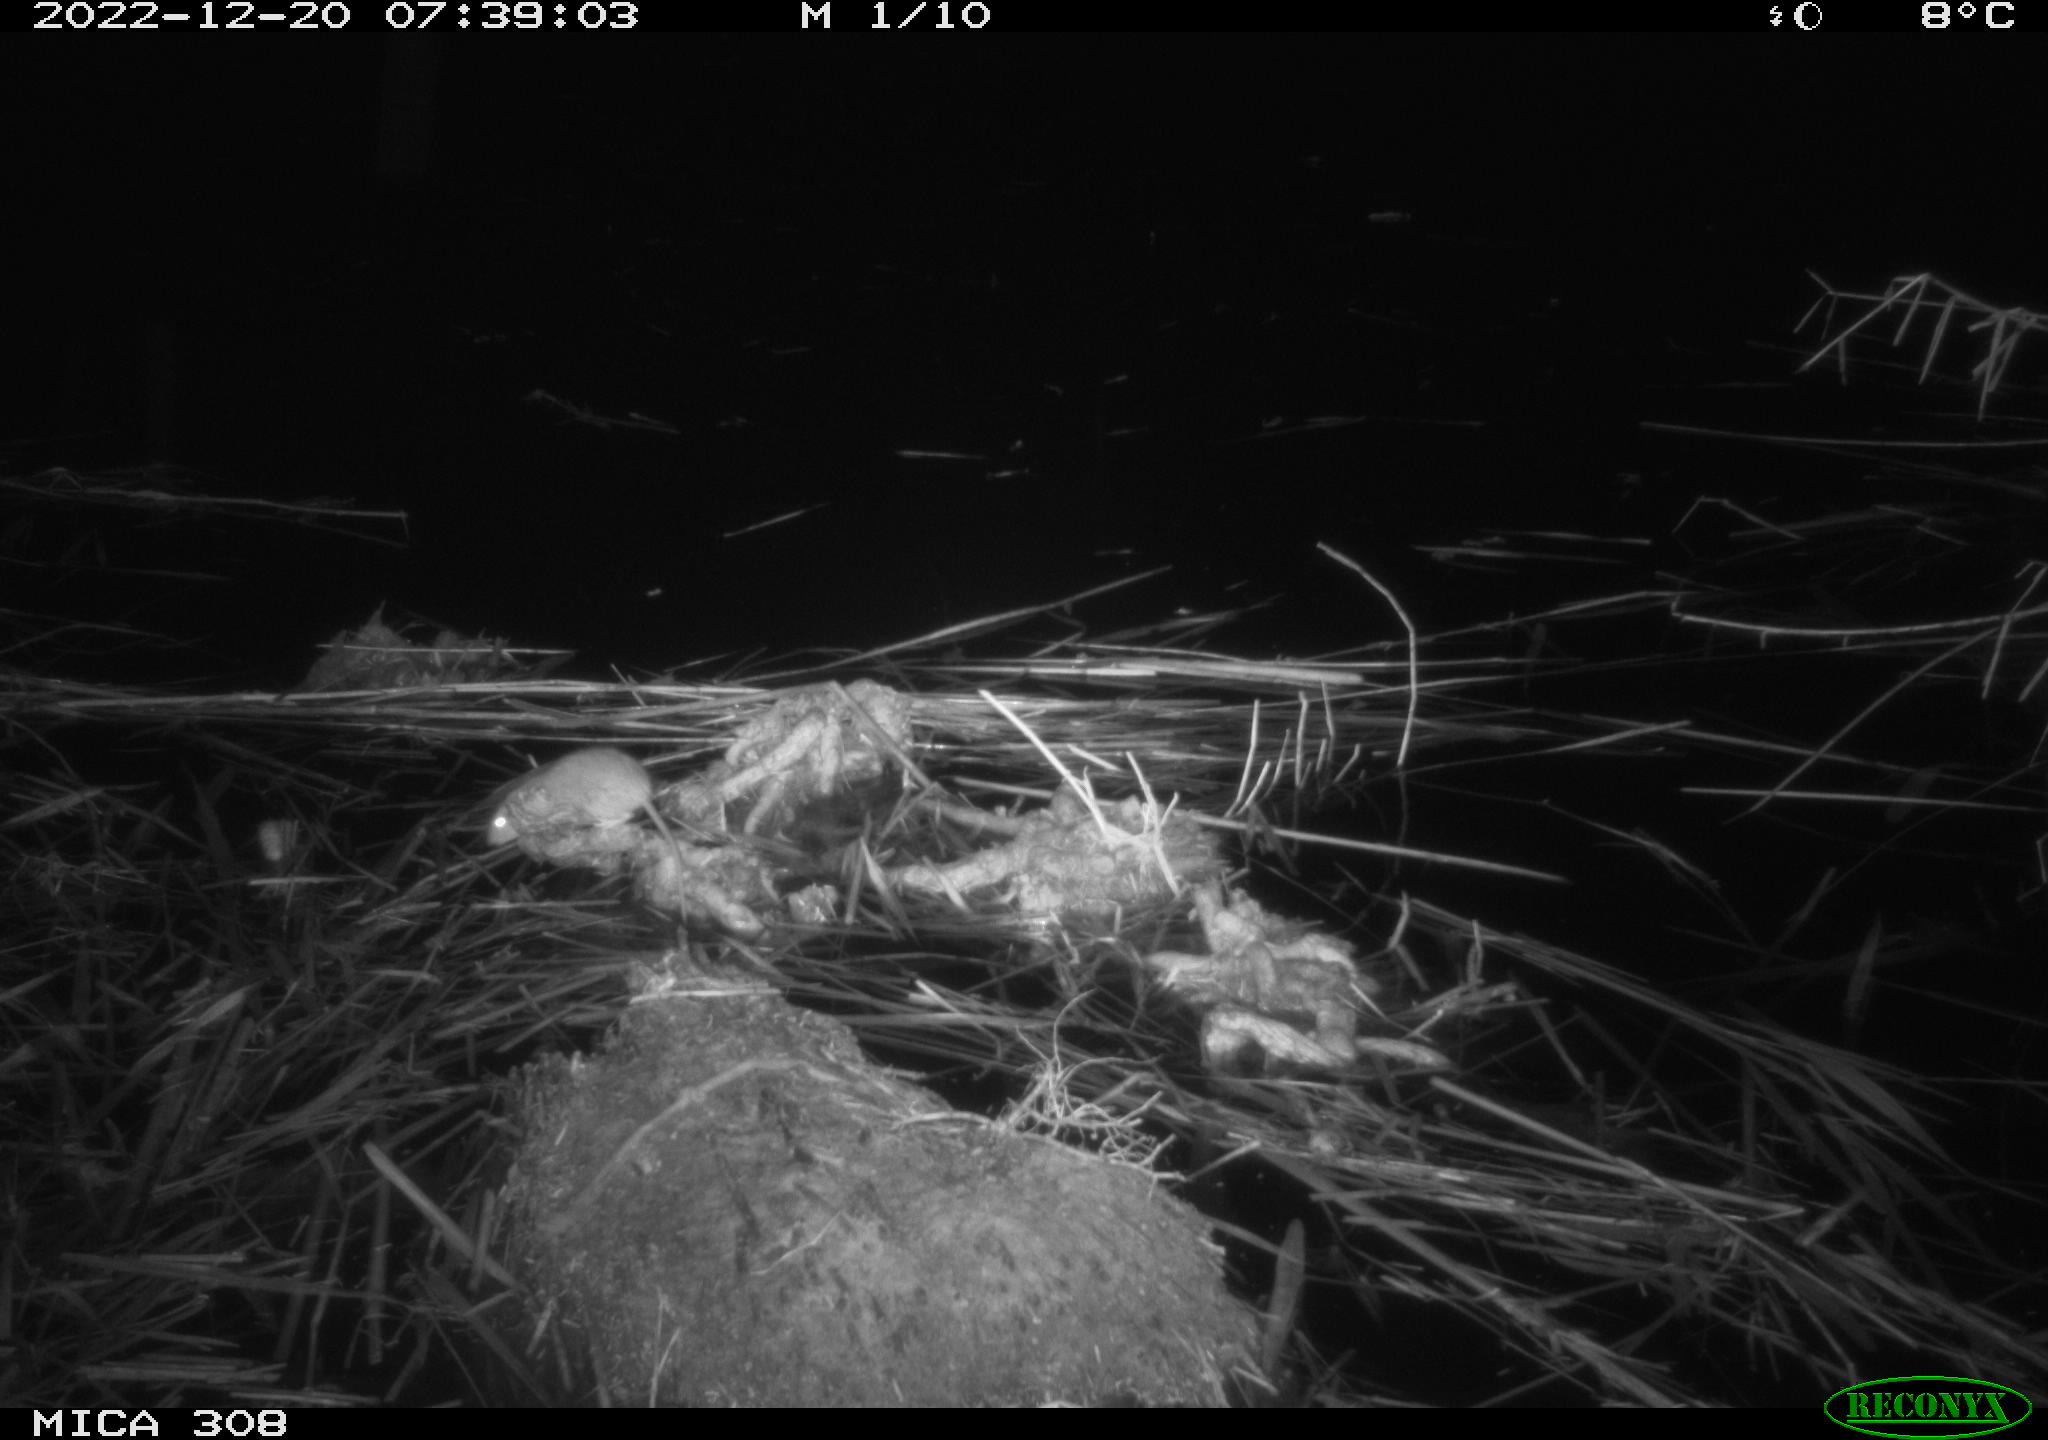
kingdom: Animalia
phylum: Chordata
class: Mammalia
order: Rodentia
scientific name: Rodentia
